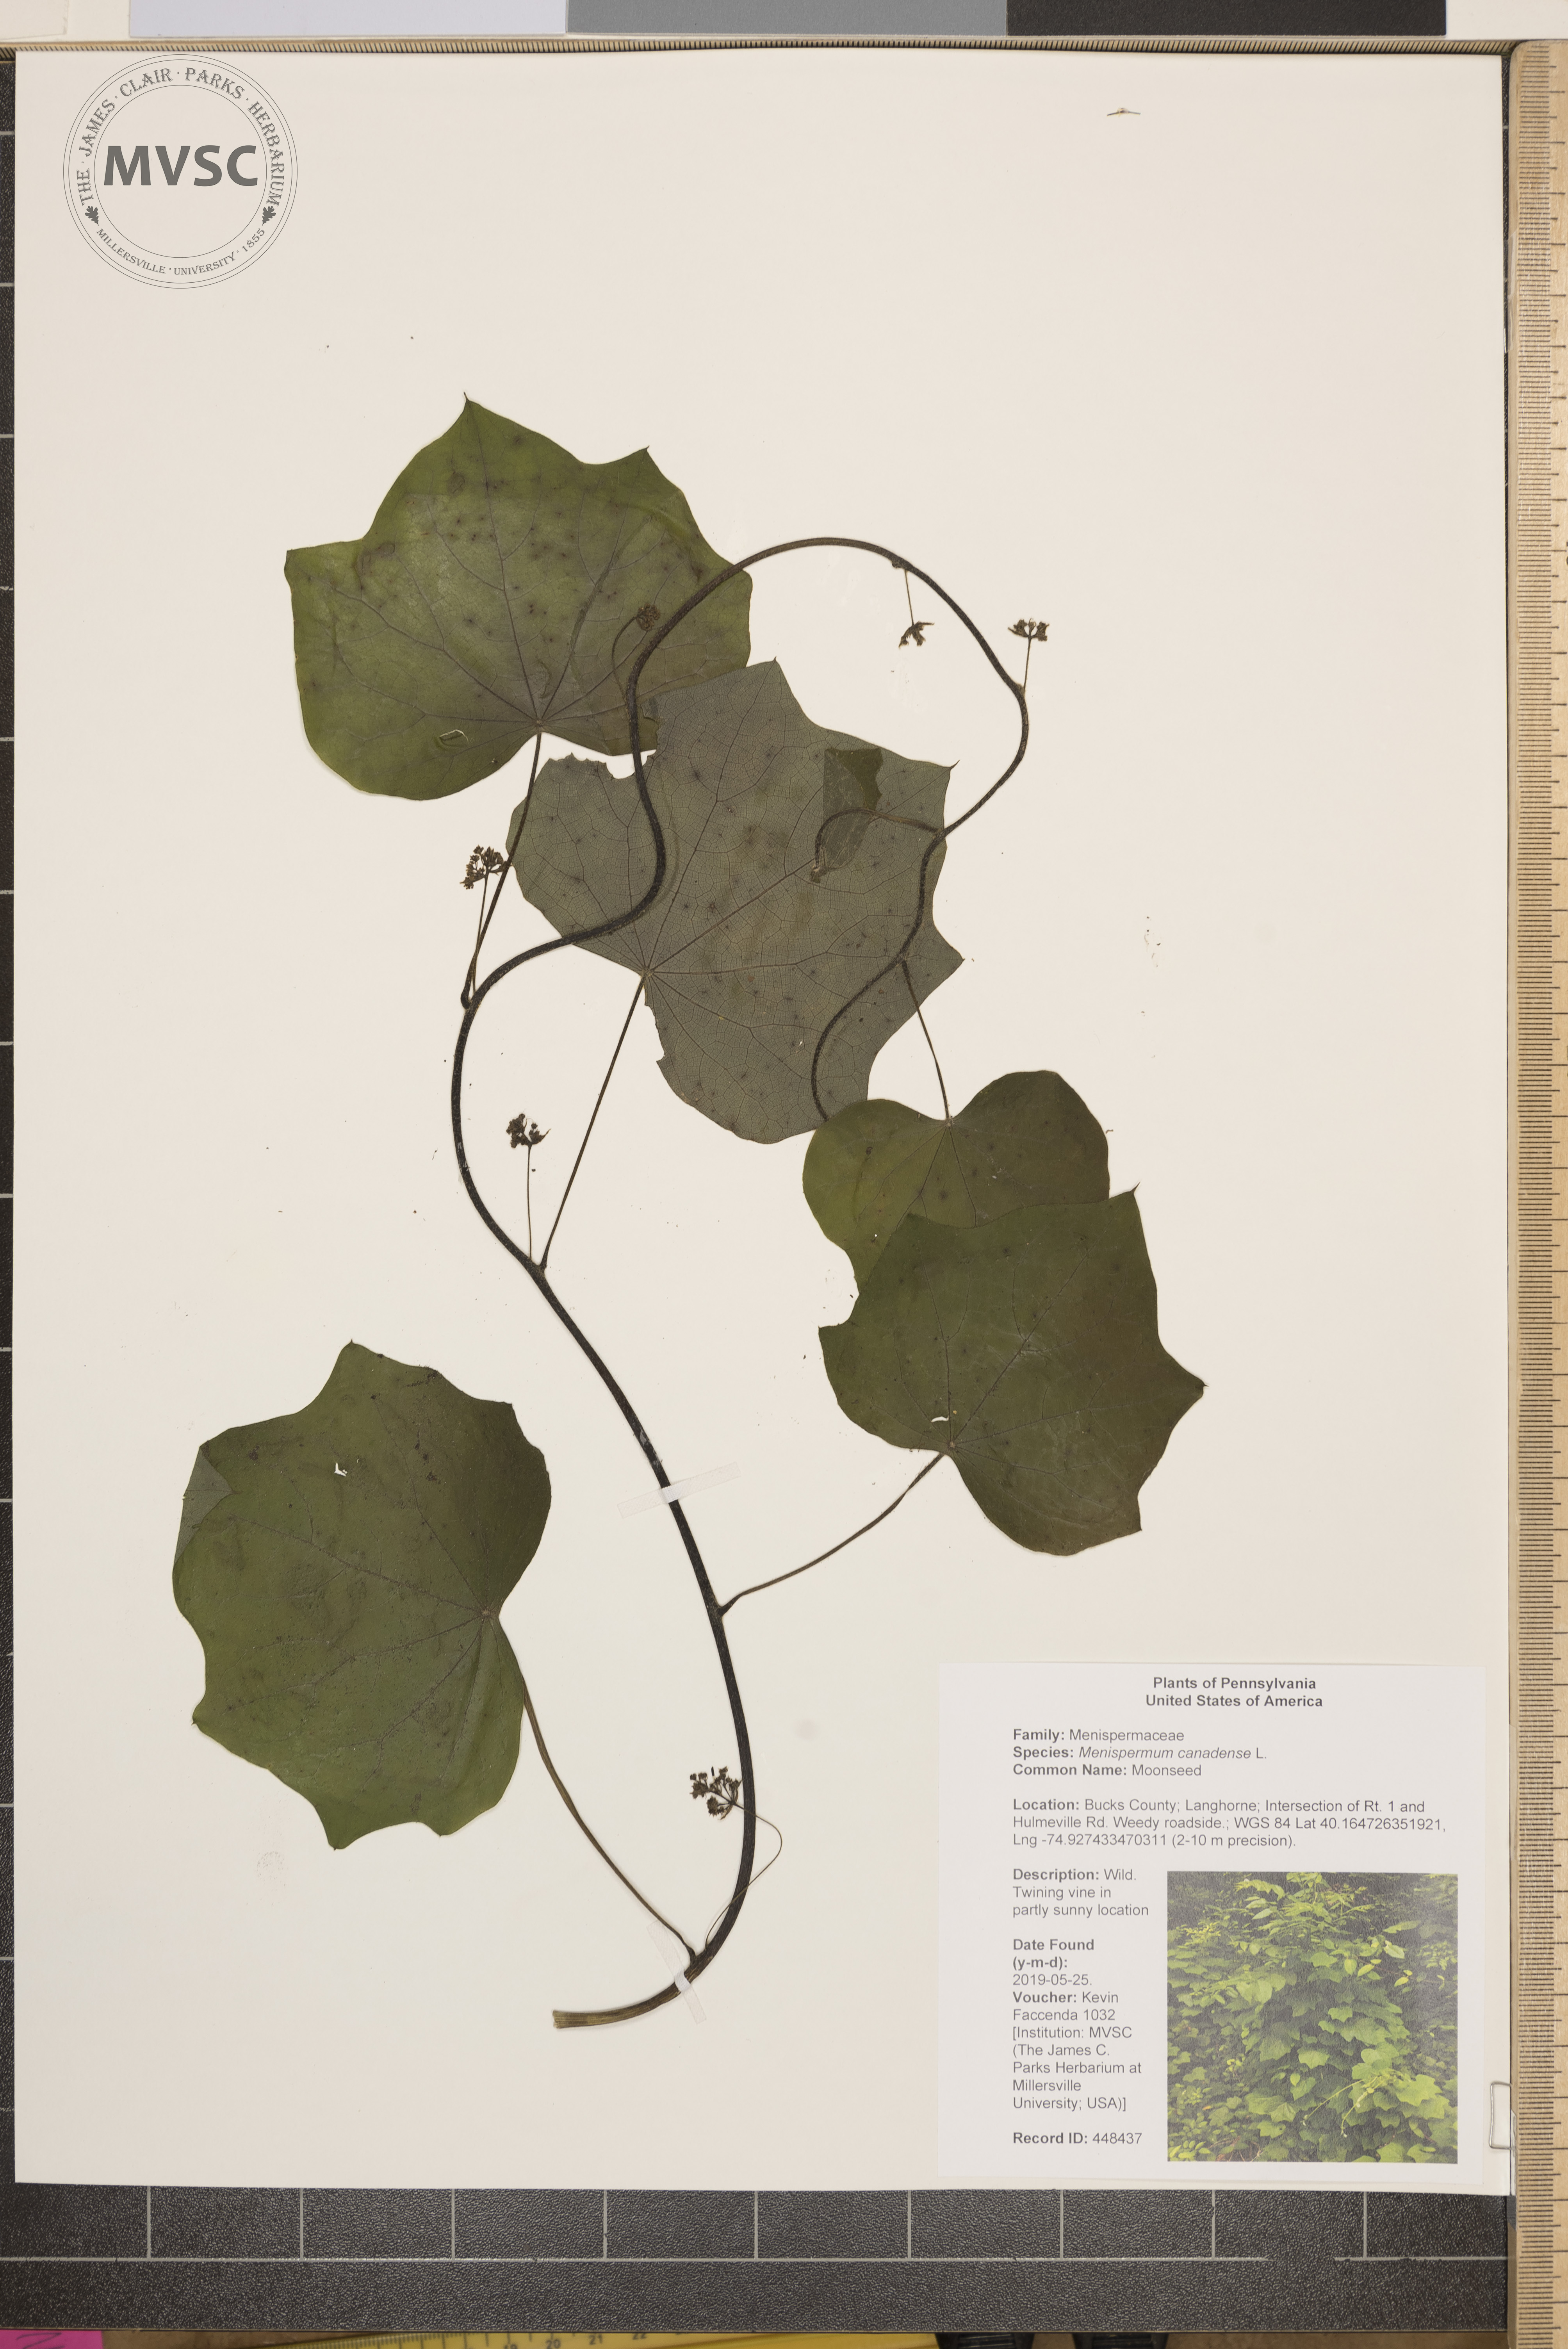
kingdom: Plantae
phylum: Tracheophyta
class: Magnoliopsida
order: Ranunculales
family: Menispermaceae
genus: Menispermum
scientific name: Menispermum canadense
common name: Moonseed
